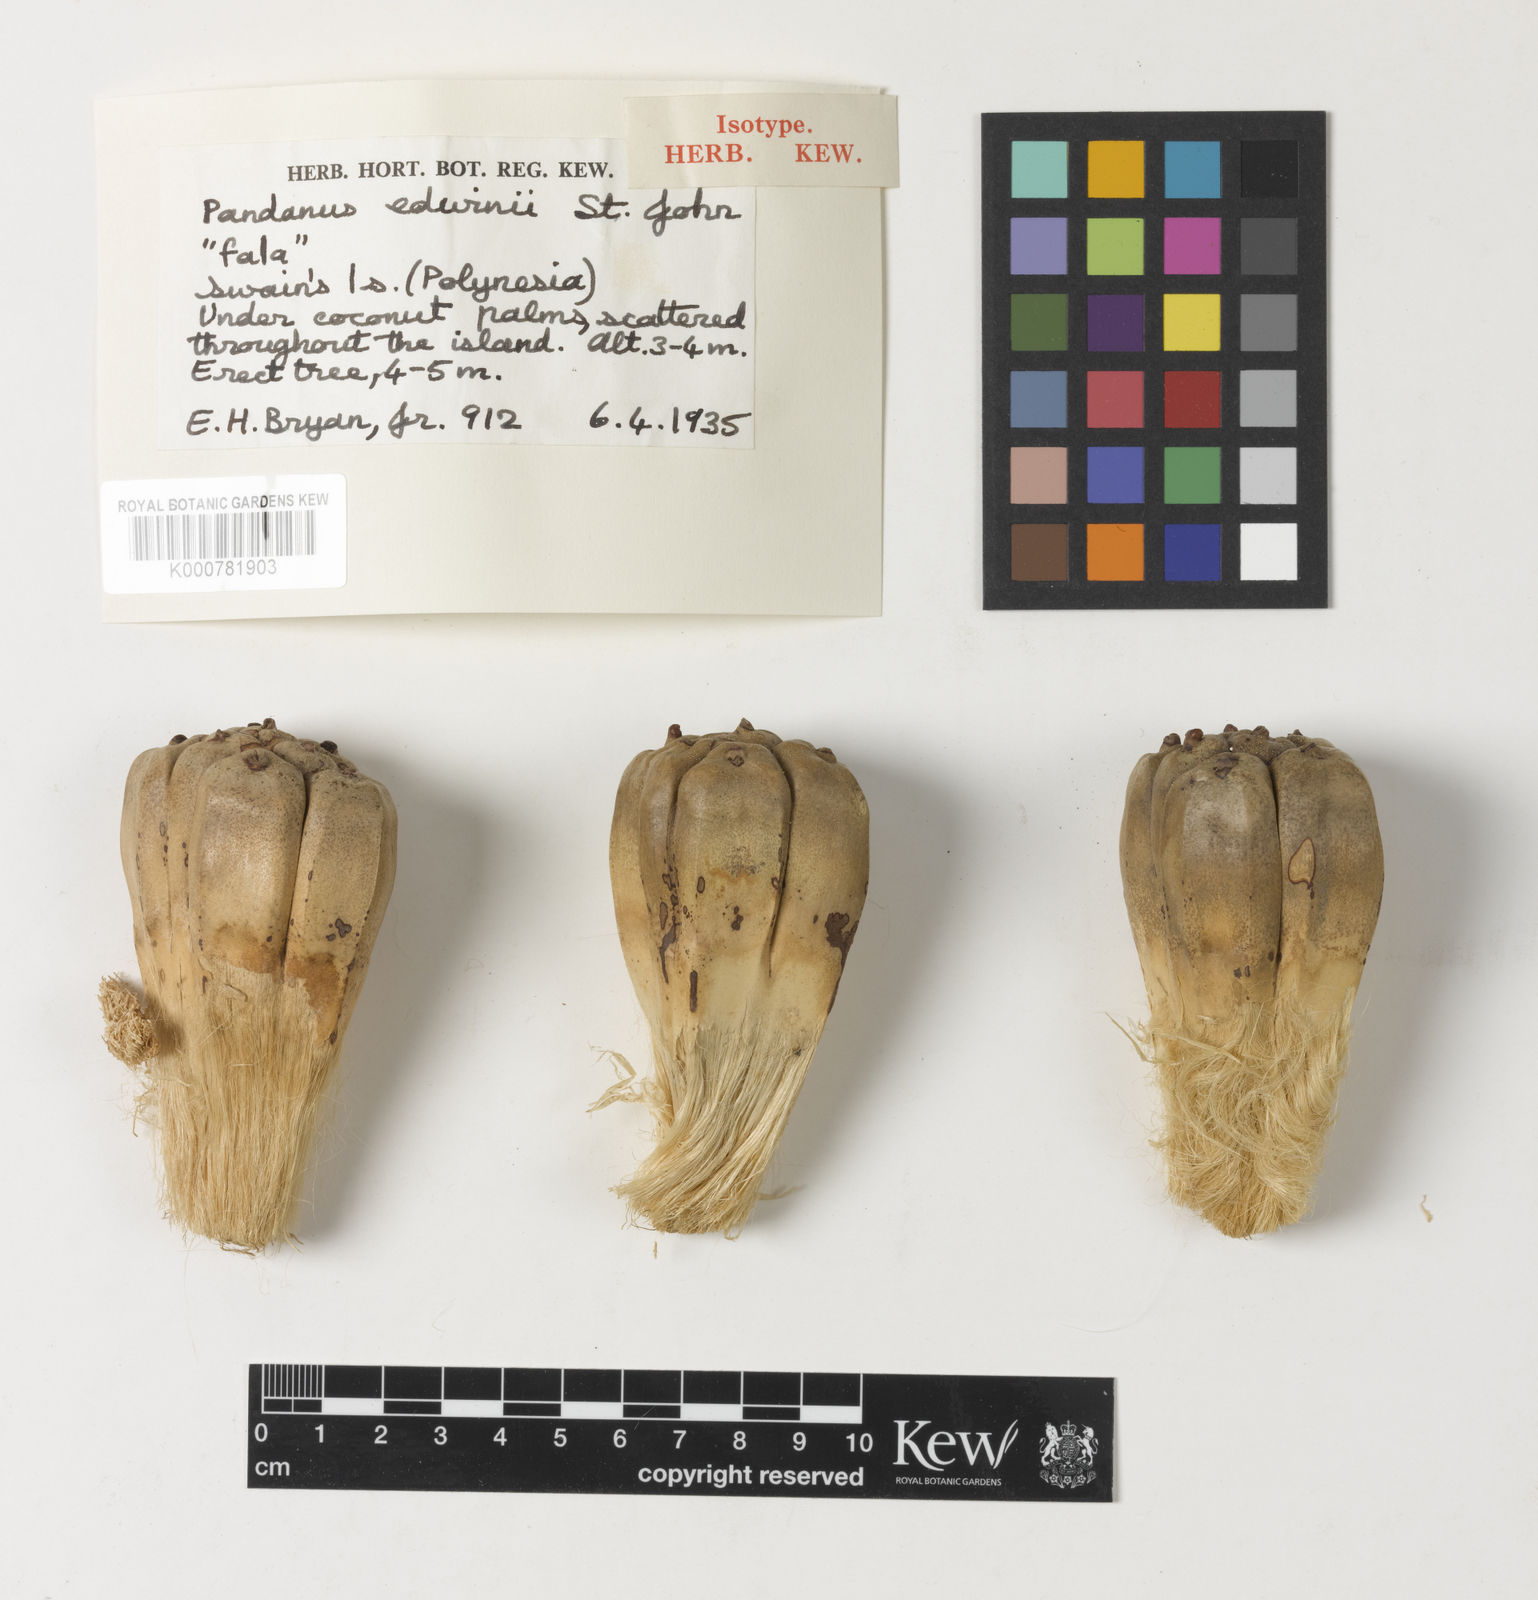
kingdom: Plantae
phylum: Tracheophyta
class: Liliopsida
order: Pandanales
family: Pandanaceae
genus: Pandanus
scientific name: Pandanus tectorius
